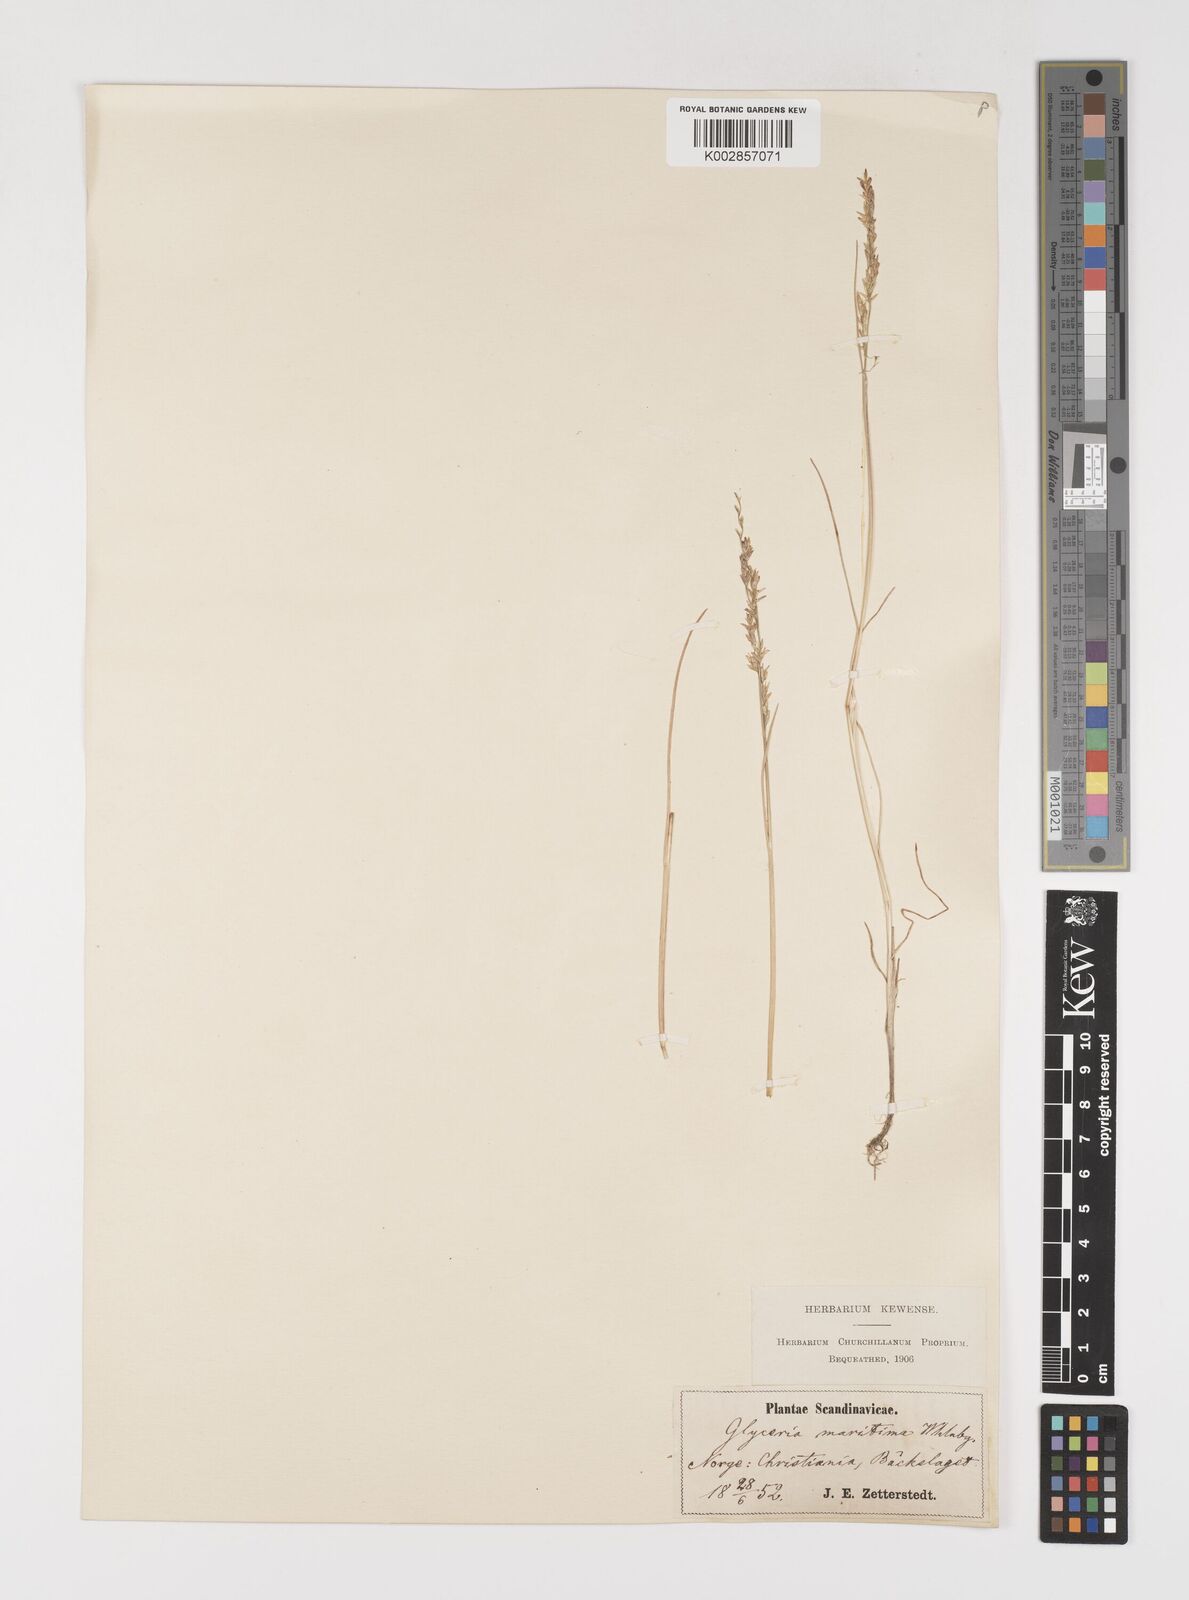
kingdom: Plantae
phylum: Tracheophyta
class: Liliopsida
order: Poales
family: Poaceae
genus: Puccinellia
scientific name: Puccinellia maritima
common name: Common saltmarsh grass
